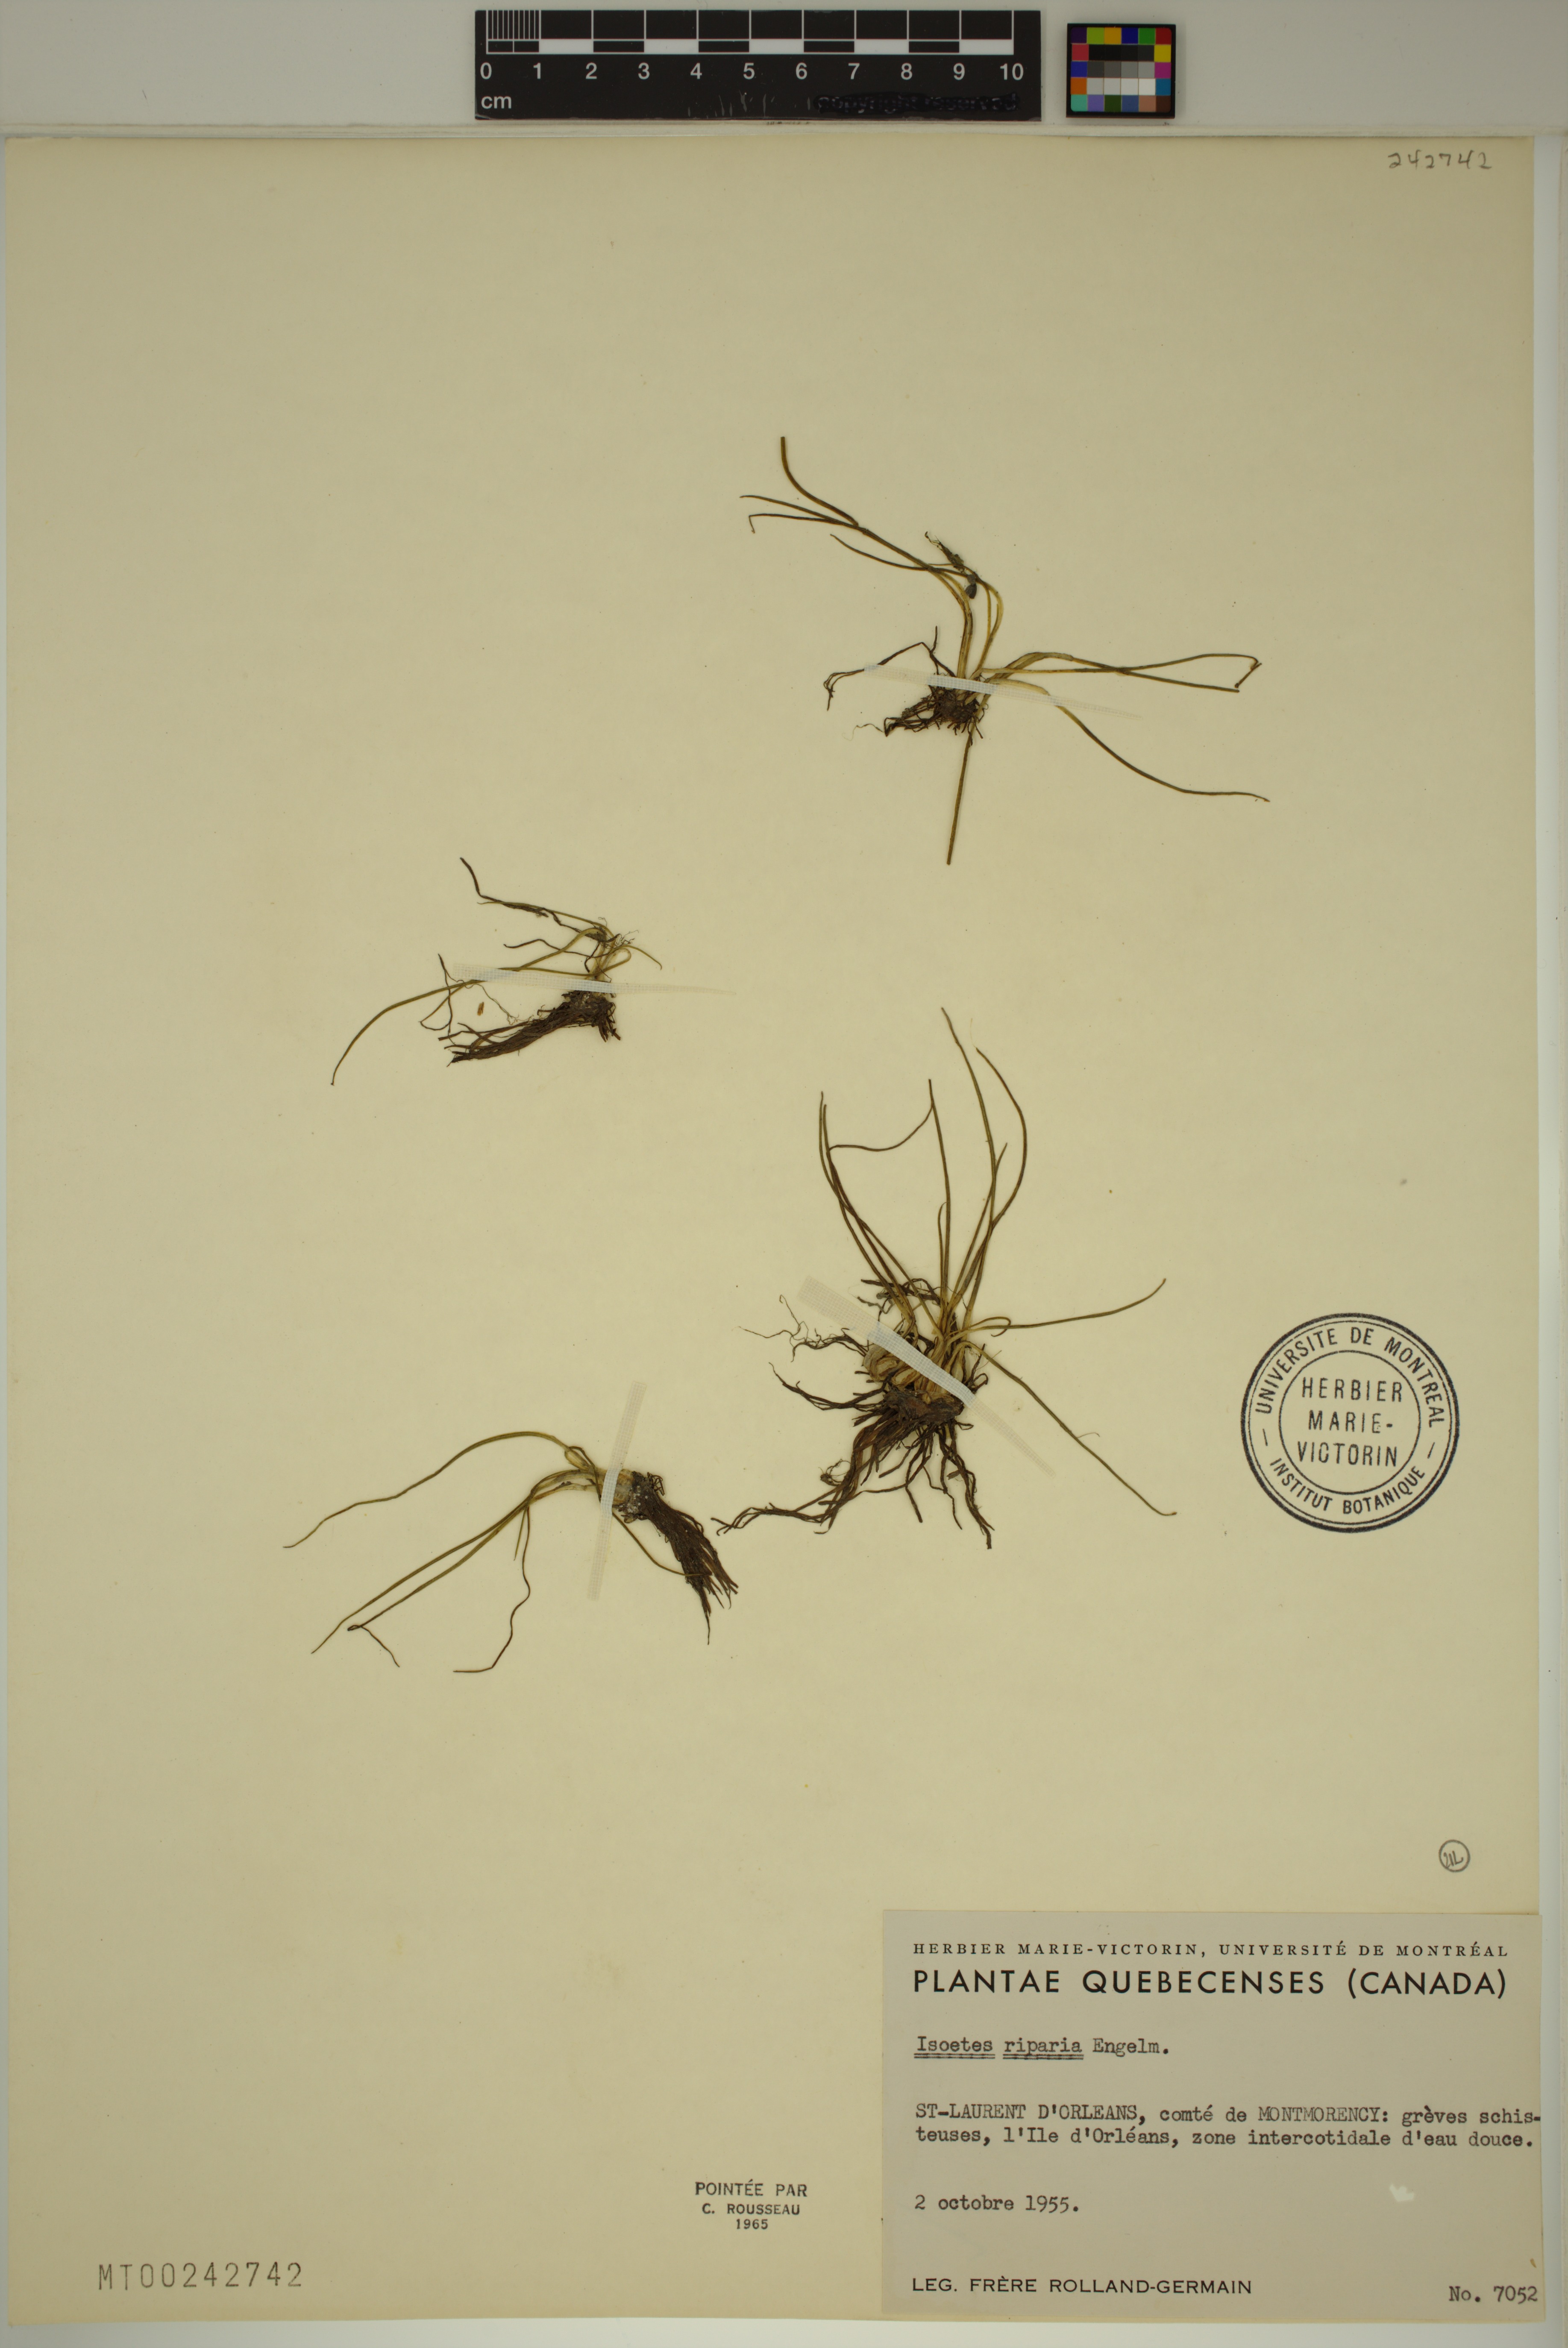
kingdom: Plantae
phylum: Tracheophyta
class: Lycopodiopsida
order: Isoetales
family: Isoetaceae
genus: Isoetes
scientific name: Isoetes laurentiana
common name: St. lawrence quillwort
